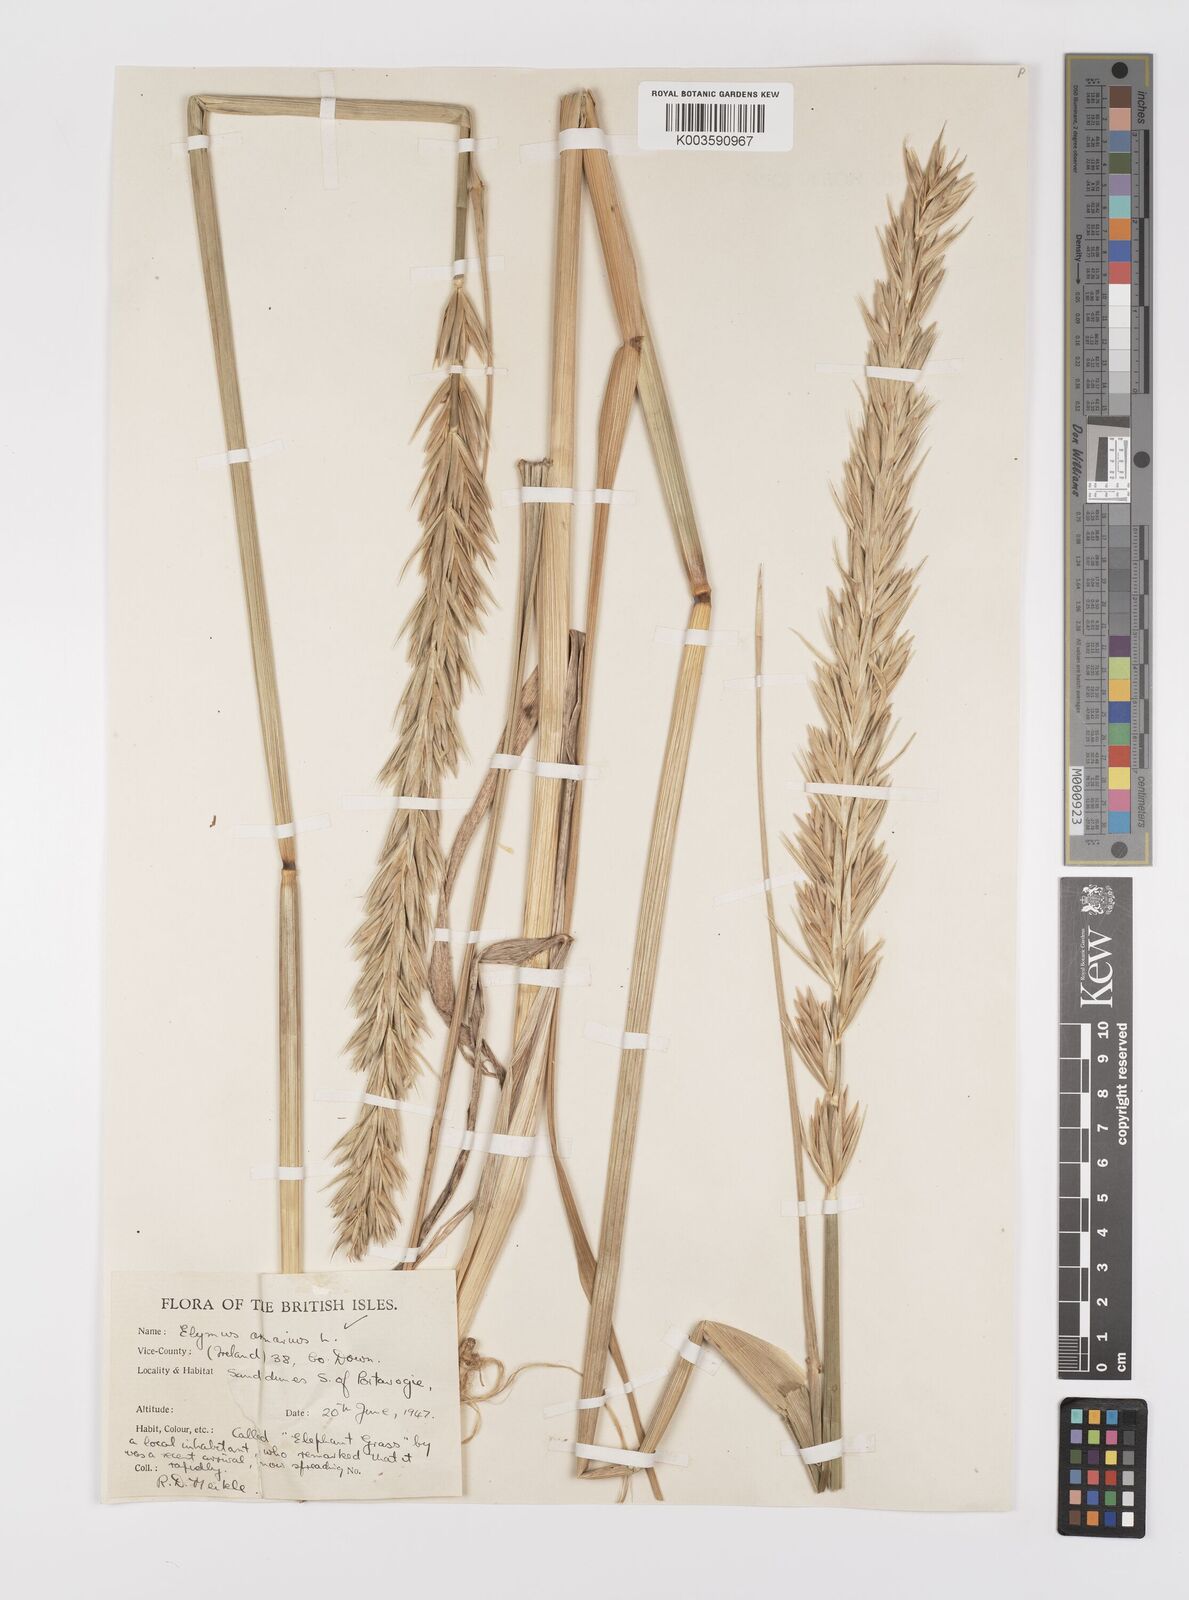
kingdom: Plantae
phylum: Tracheophyta
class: Liliopsida
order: Poales
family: Poaceae
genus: Leymus
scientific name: Leymus arenarius
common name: Lyme-grass
